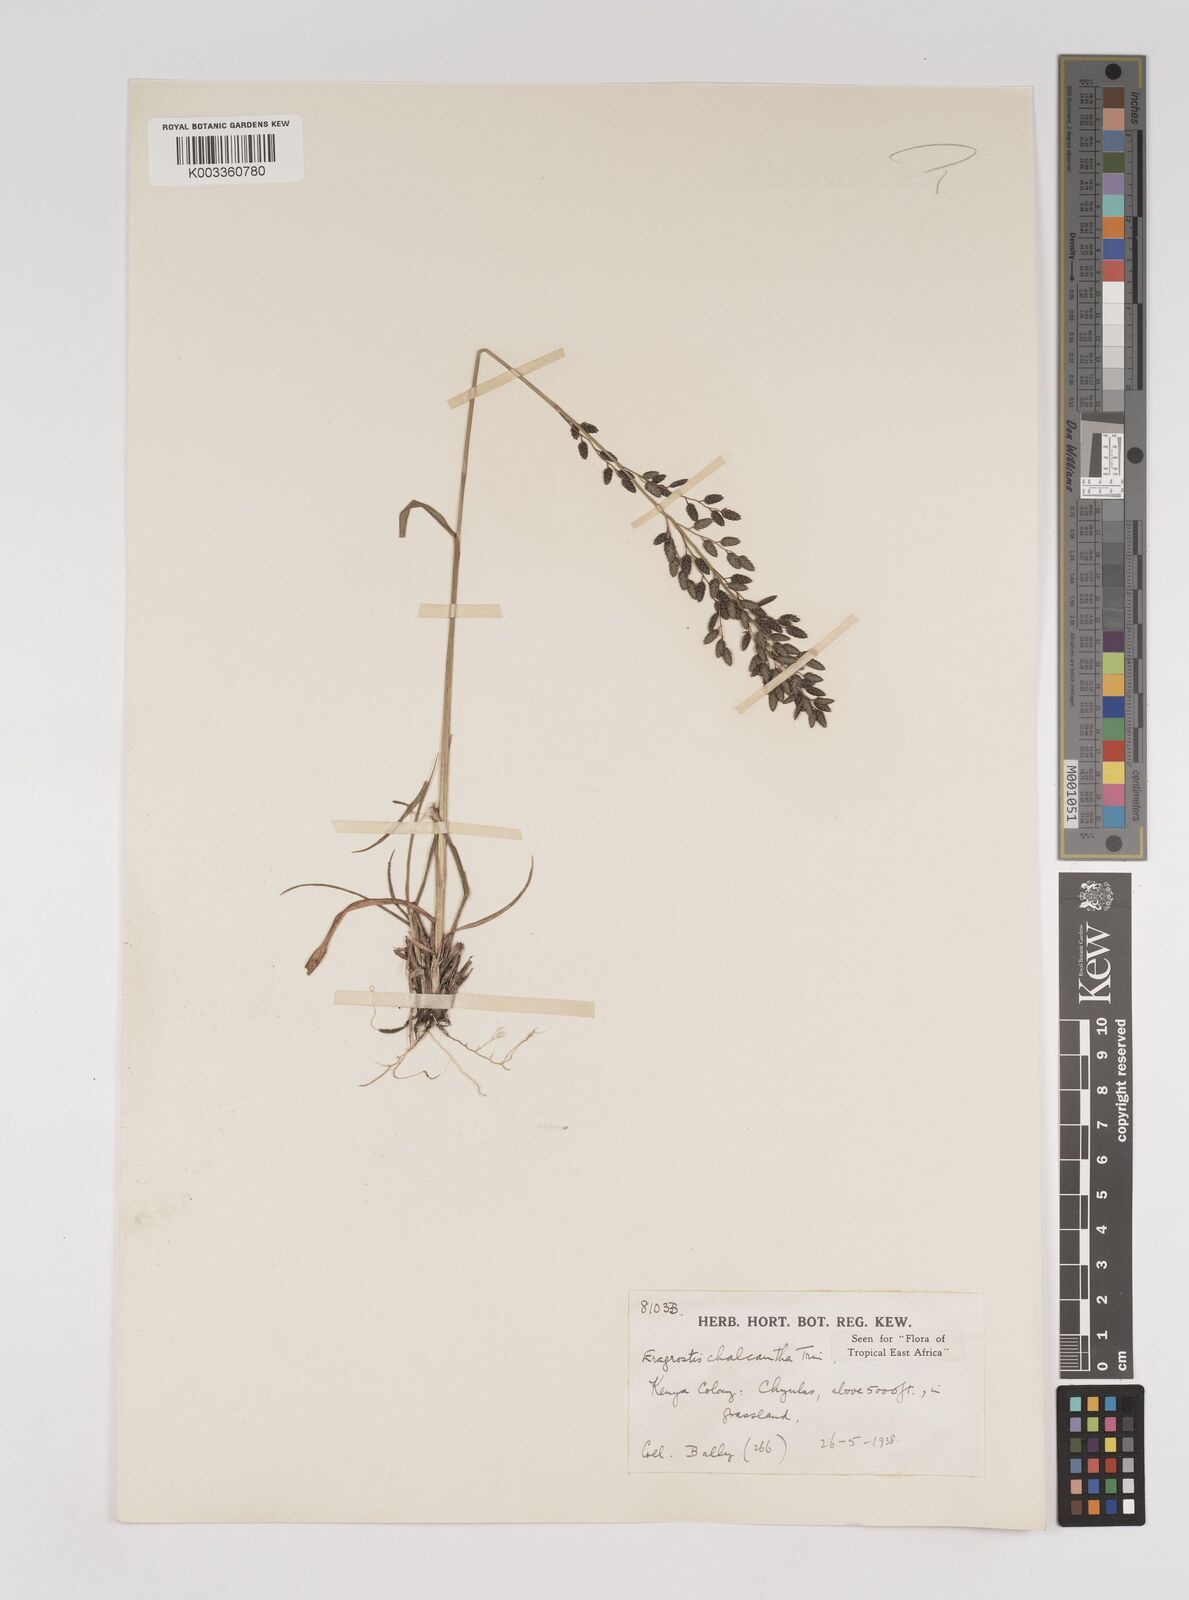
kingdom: Plantae
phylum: Tracheophyta
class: Liliopsida
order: Poales
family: Poaceae
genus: Eragrostis
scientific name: Eragrostis racemosa
